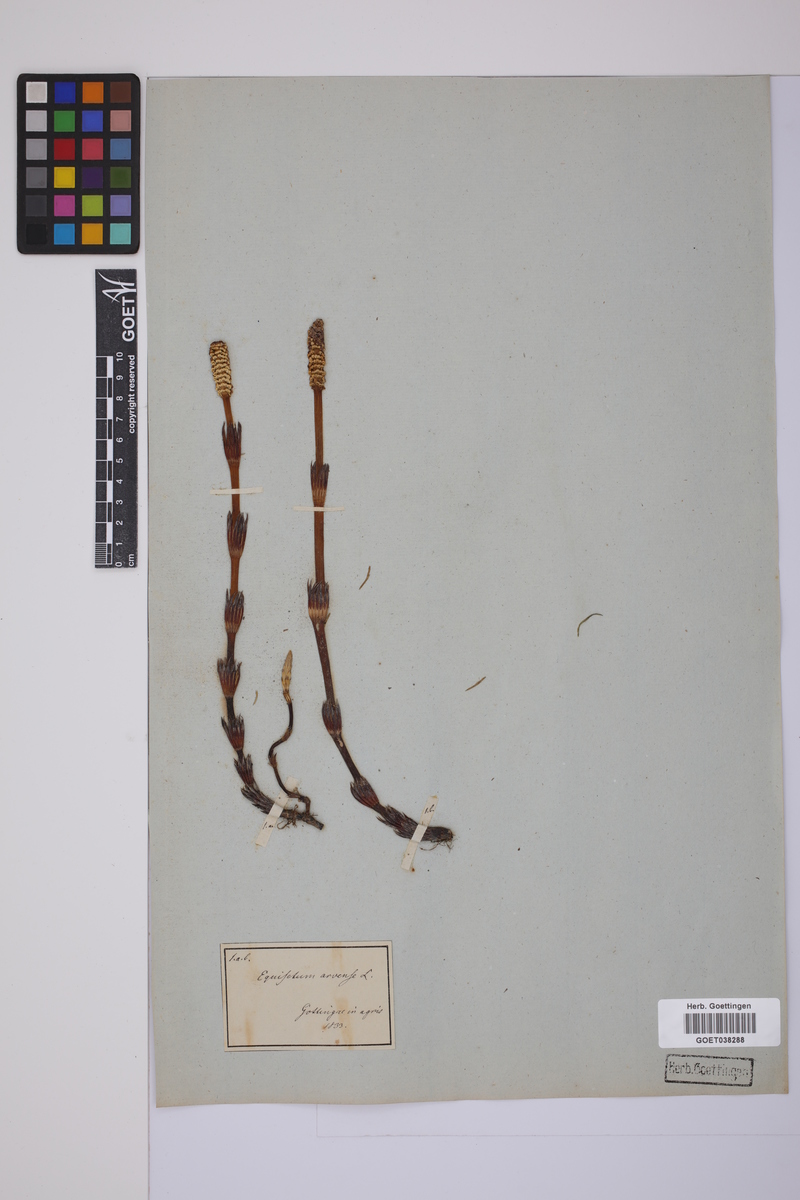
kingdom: Plantae
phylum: Tracheophyta
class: Polypodiopsida
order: Equisetales
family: Equisetaceae
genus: Equisetum
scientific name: Equisetum arvense
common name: Field horsetail
